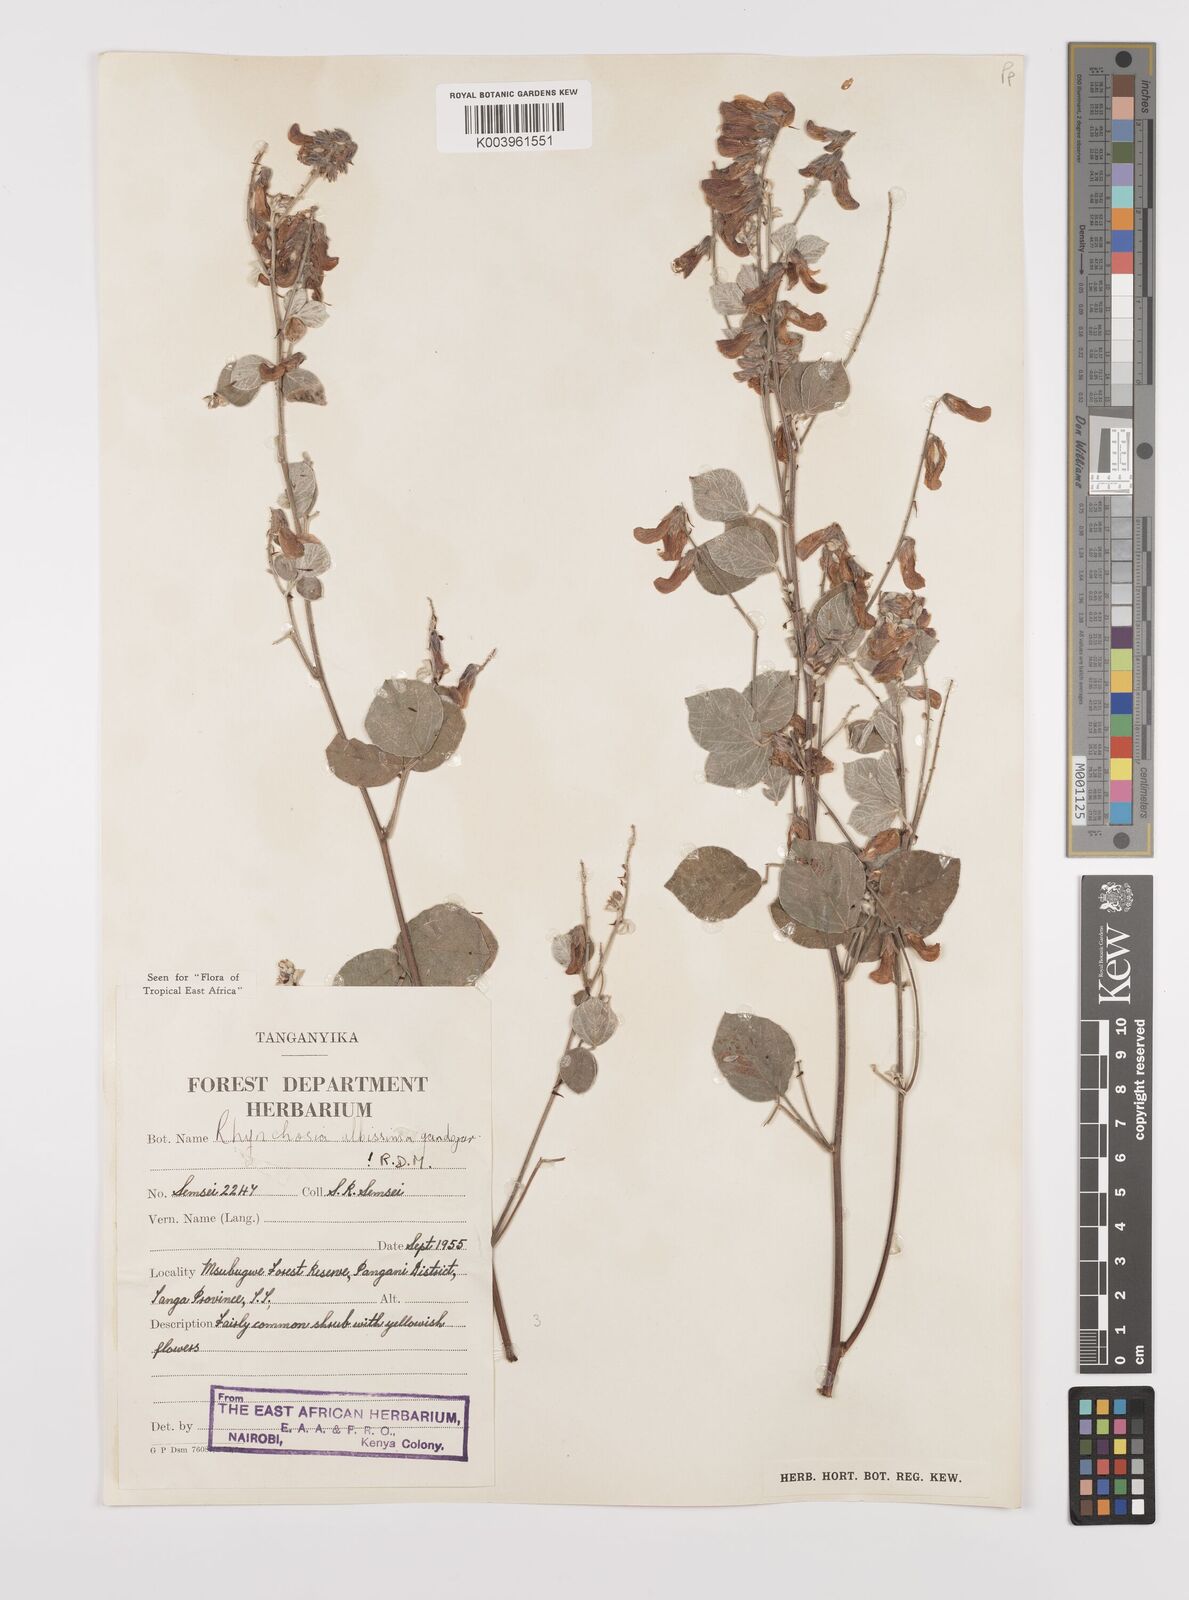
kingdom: Plantae
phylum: Tracheophyta
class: Magnoliopsida
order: Fabales
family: Fabaceae
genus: Rhynchosia
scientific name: Rhynchosia albissima
